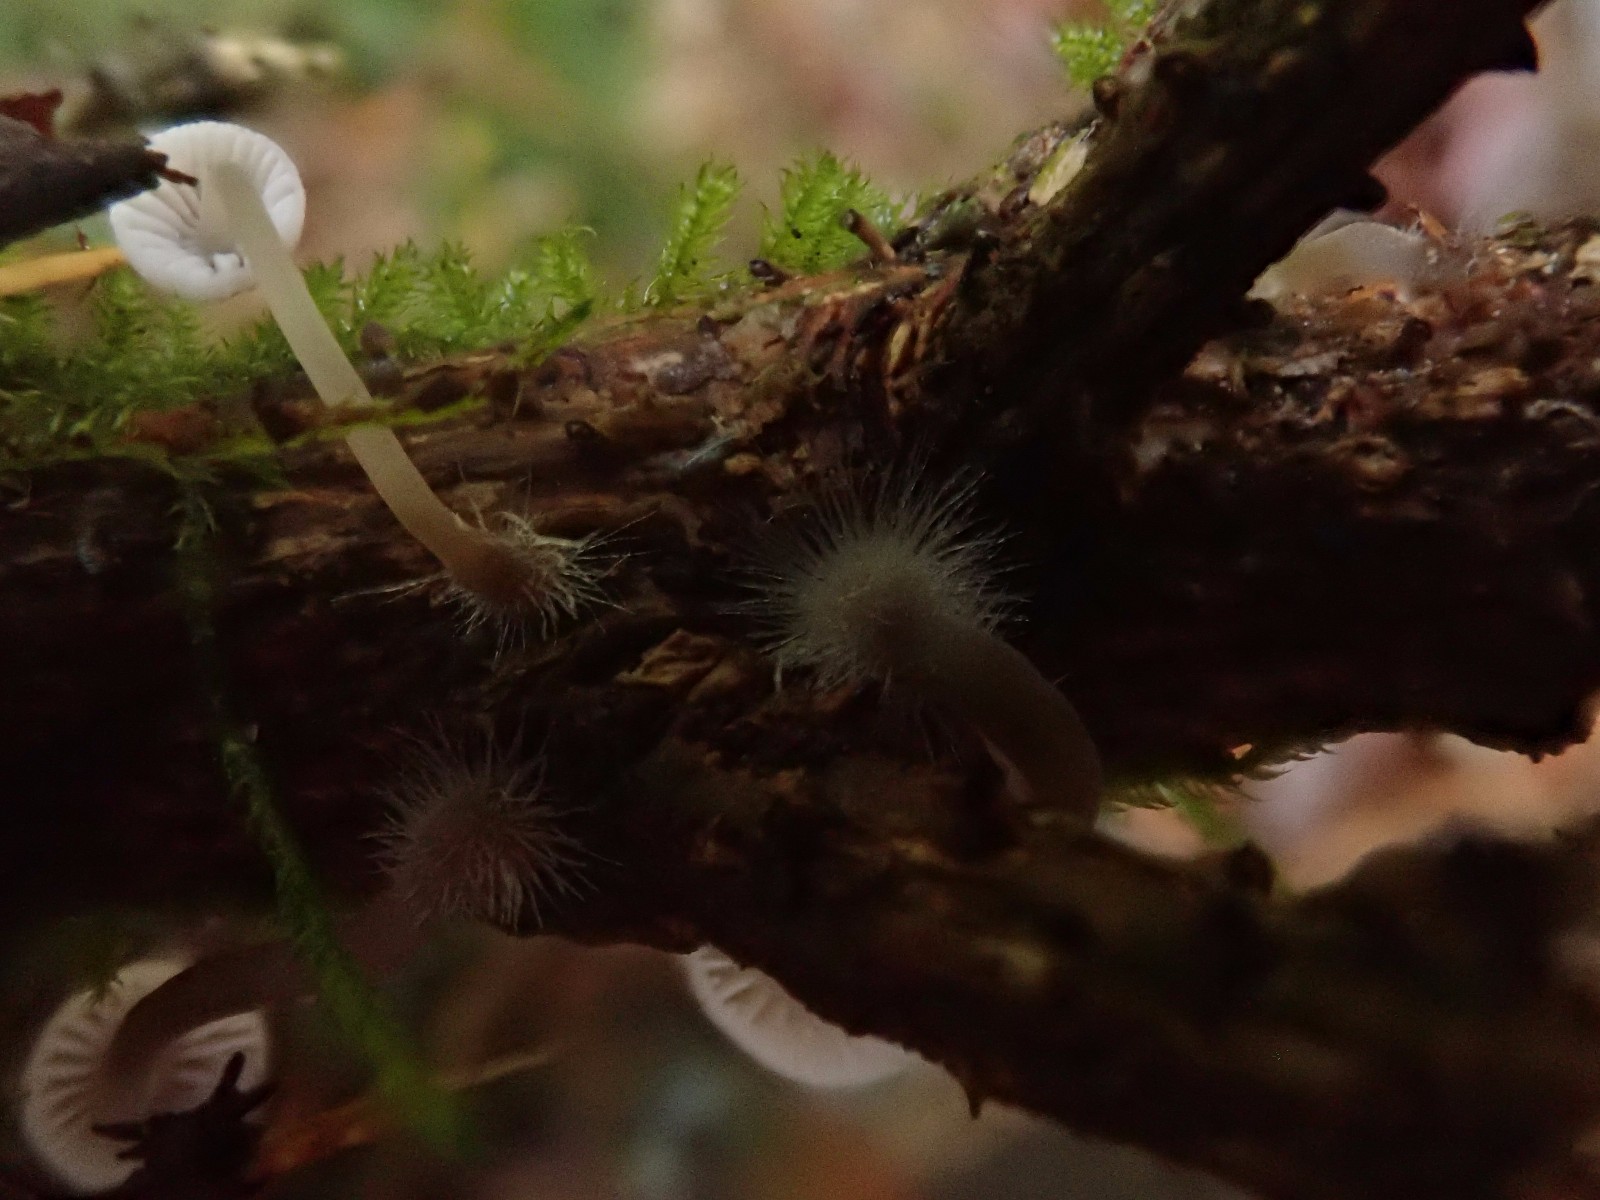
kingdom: Fungi
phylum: Basidiomycota
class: Agaricomycetes
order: Agaricales
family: Mycenaceae
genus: Mycena
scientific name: Mycena metata
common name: rødlig huesvamp
